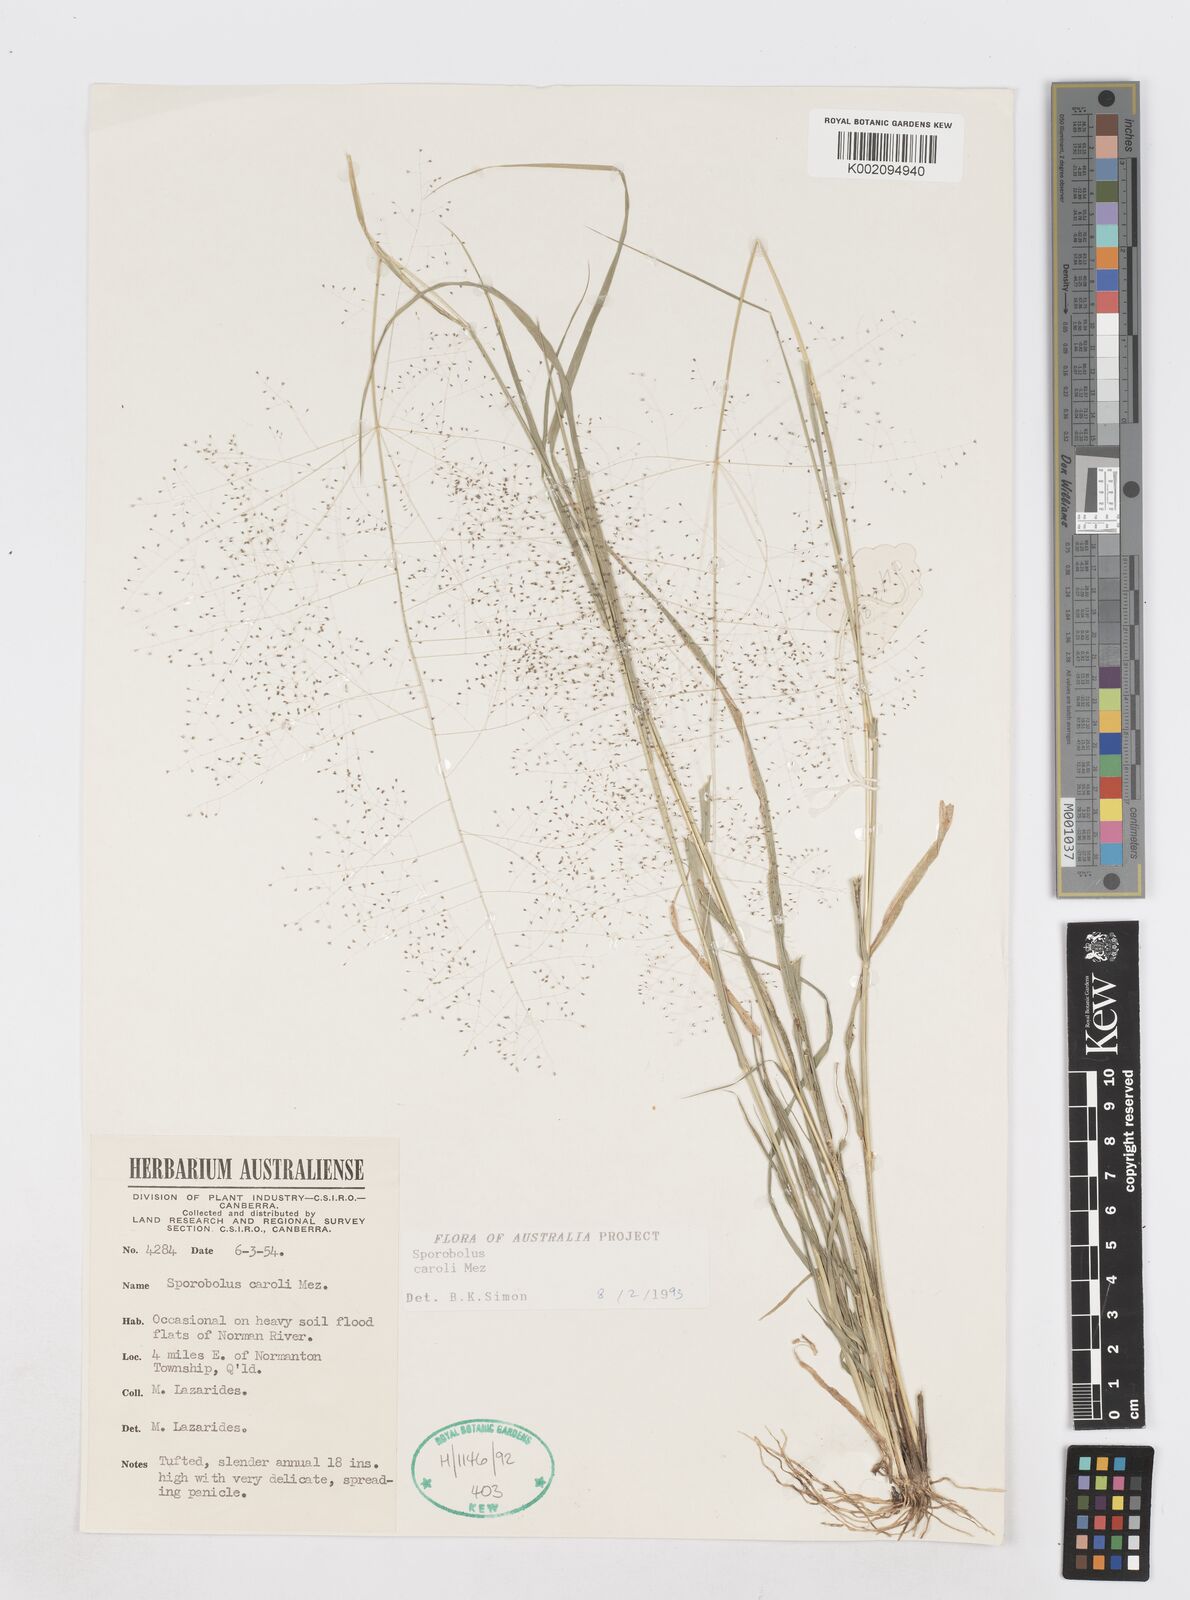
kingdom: Plantae
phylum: Tracheophyta
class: Liliopsida
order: Poales
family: Poaceae
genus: Sporobolus
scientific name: Sporobolus caroli
